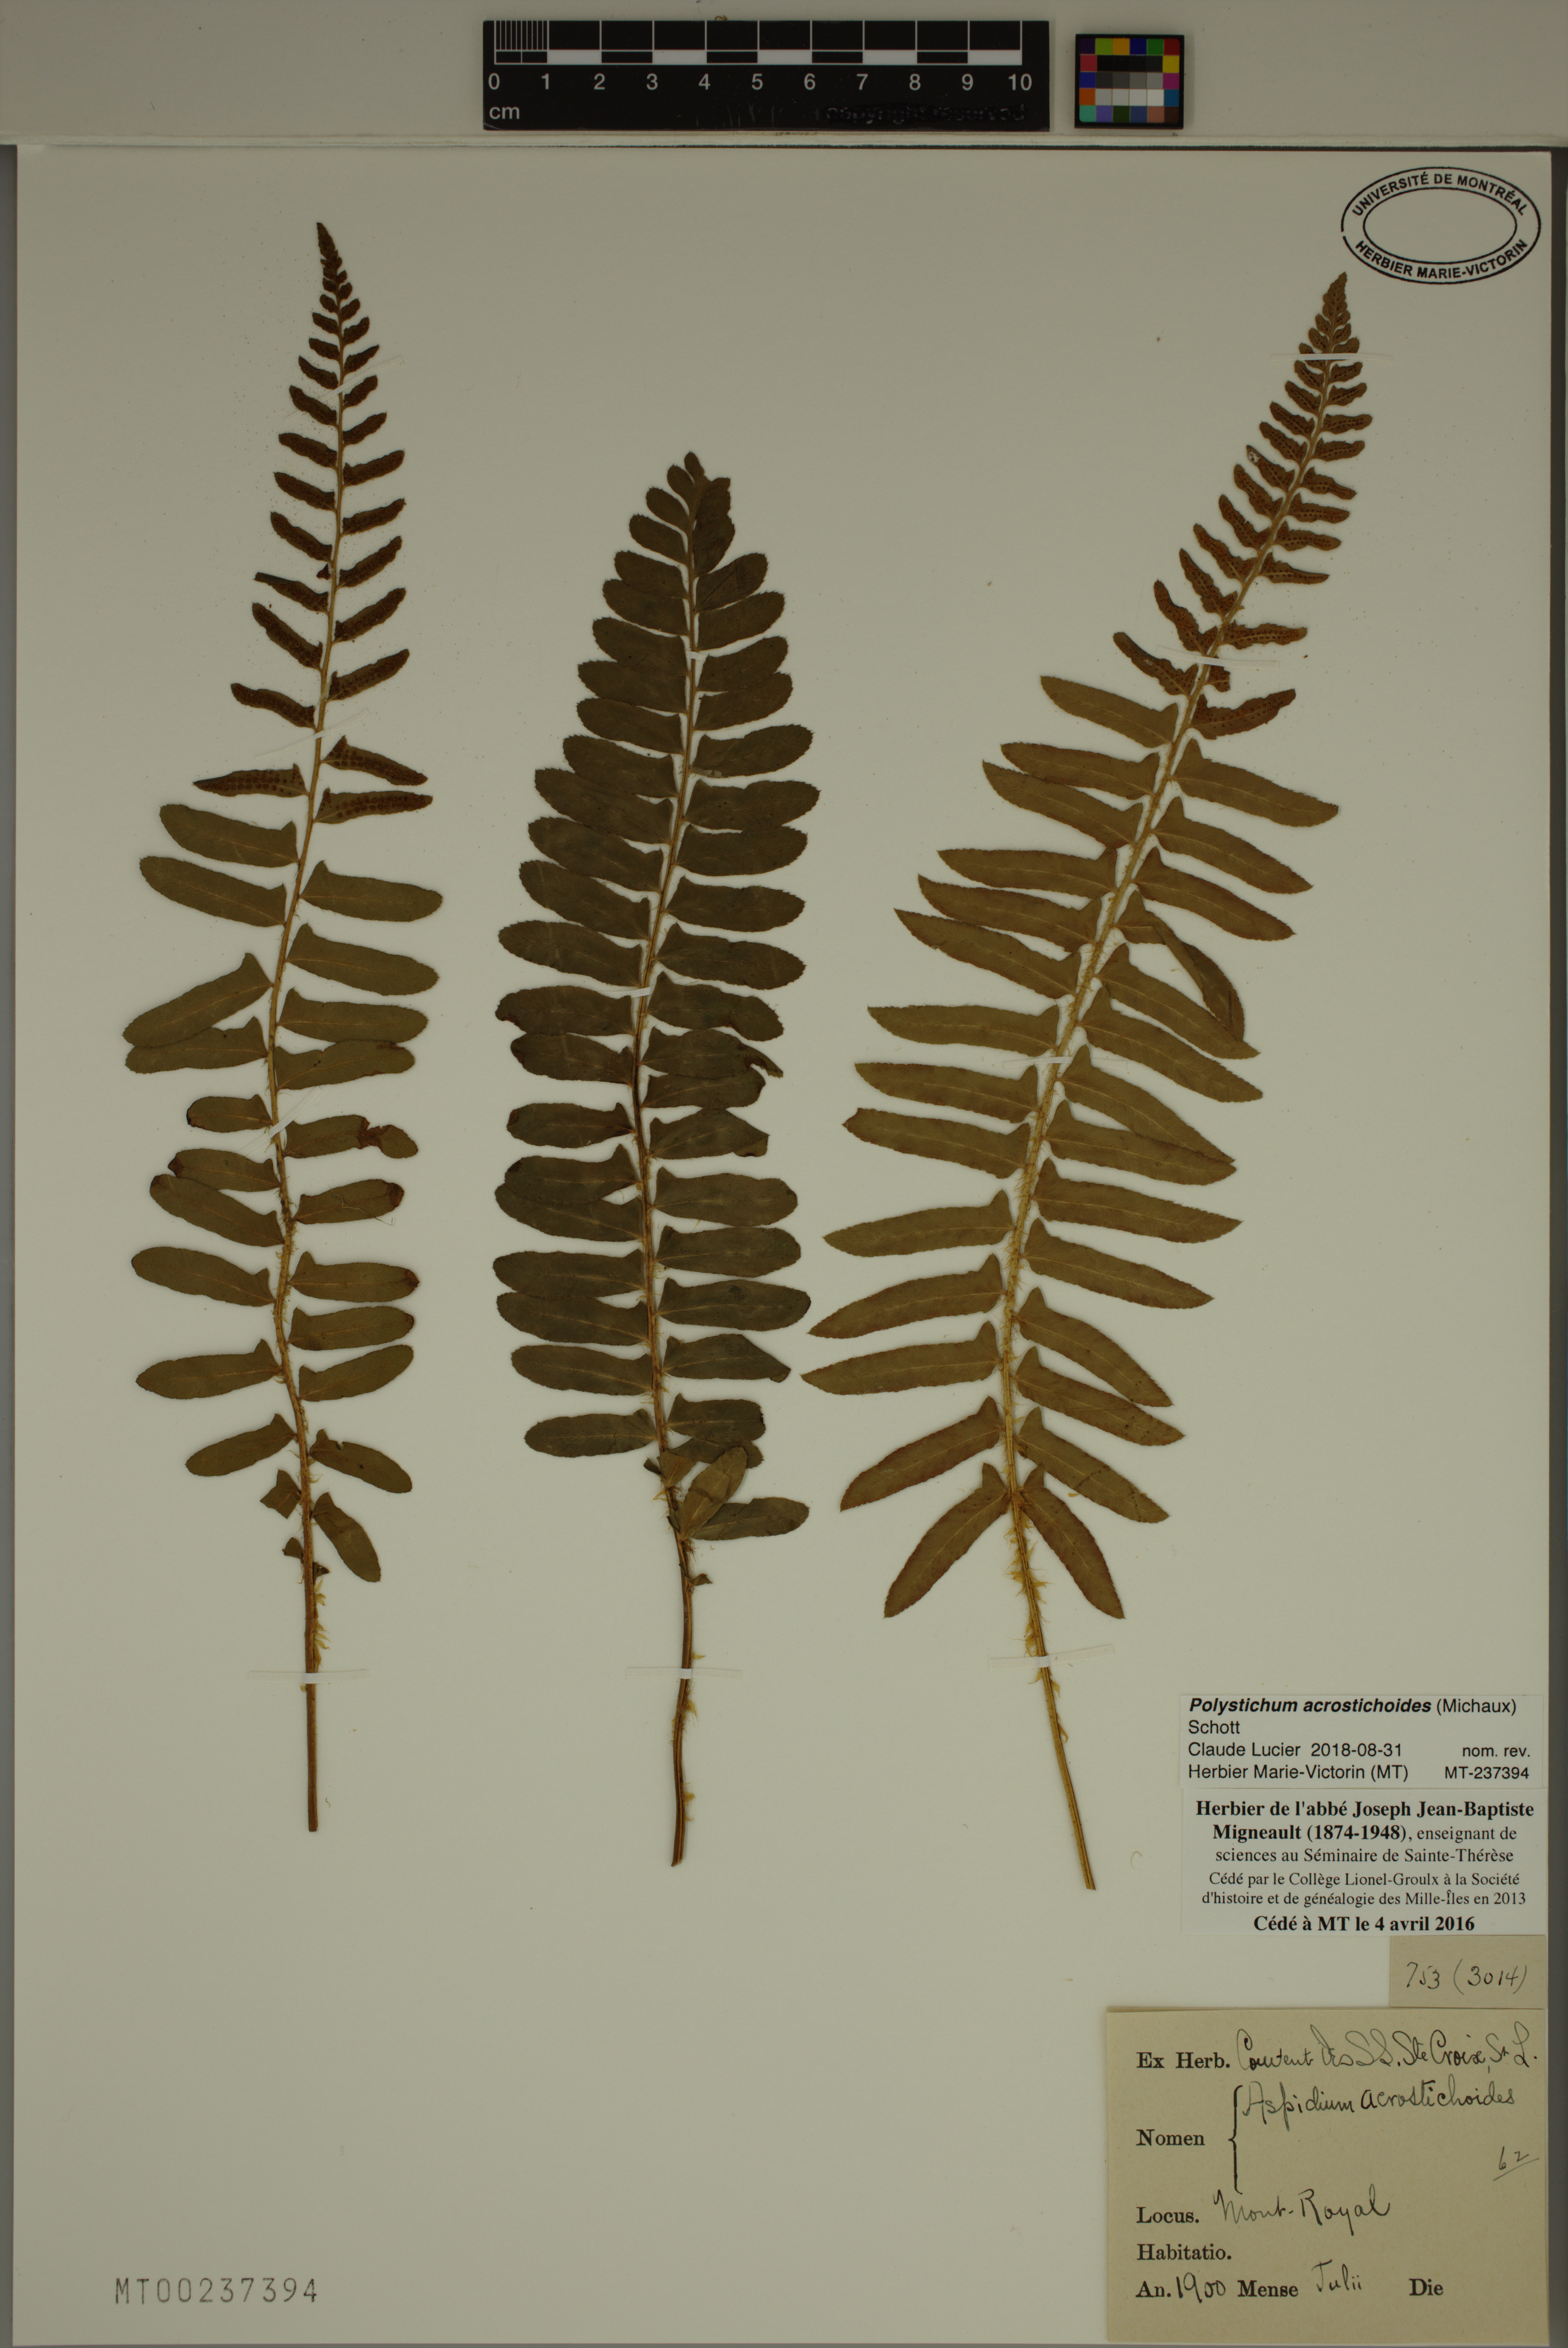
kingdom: Plantae
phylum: Tracheophyta
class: Polypodiopsida
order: Polypodiales
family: Dryopteridaceae
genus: Polystichum
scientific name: Polystichum acrostichoides
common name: Christmas fern
